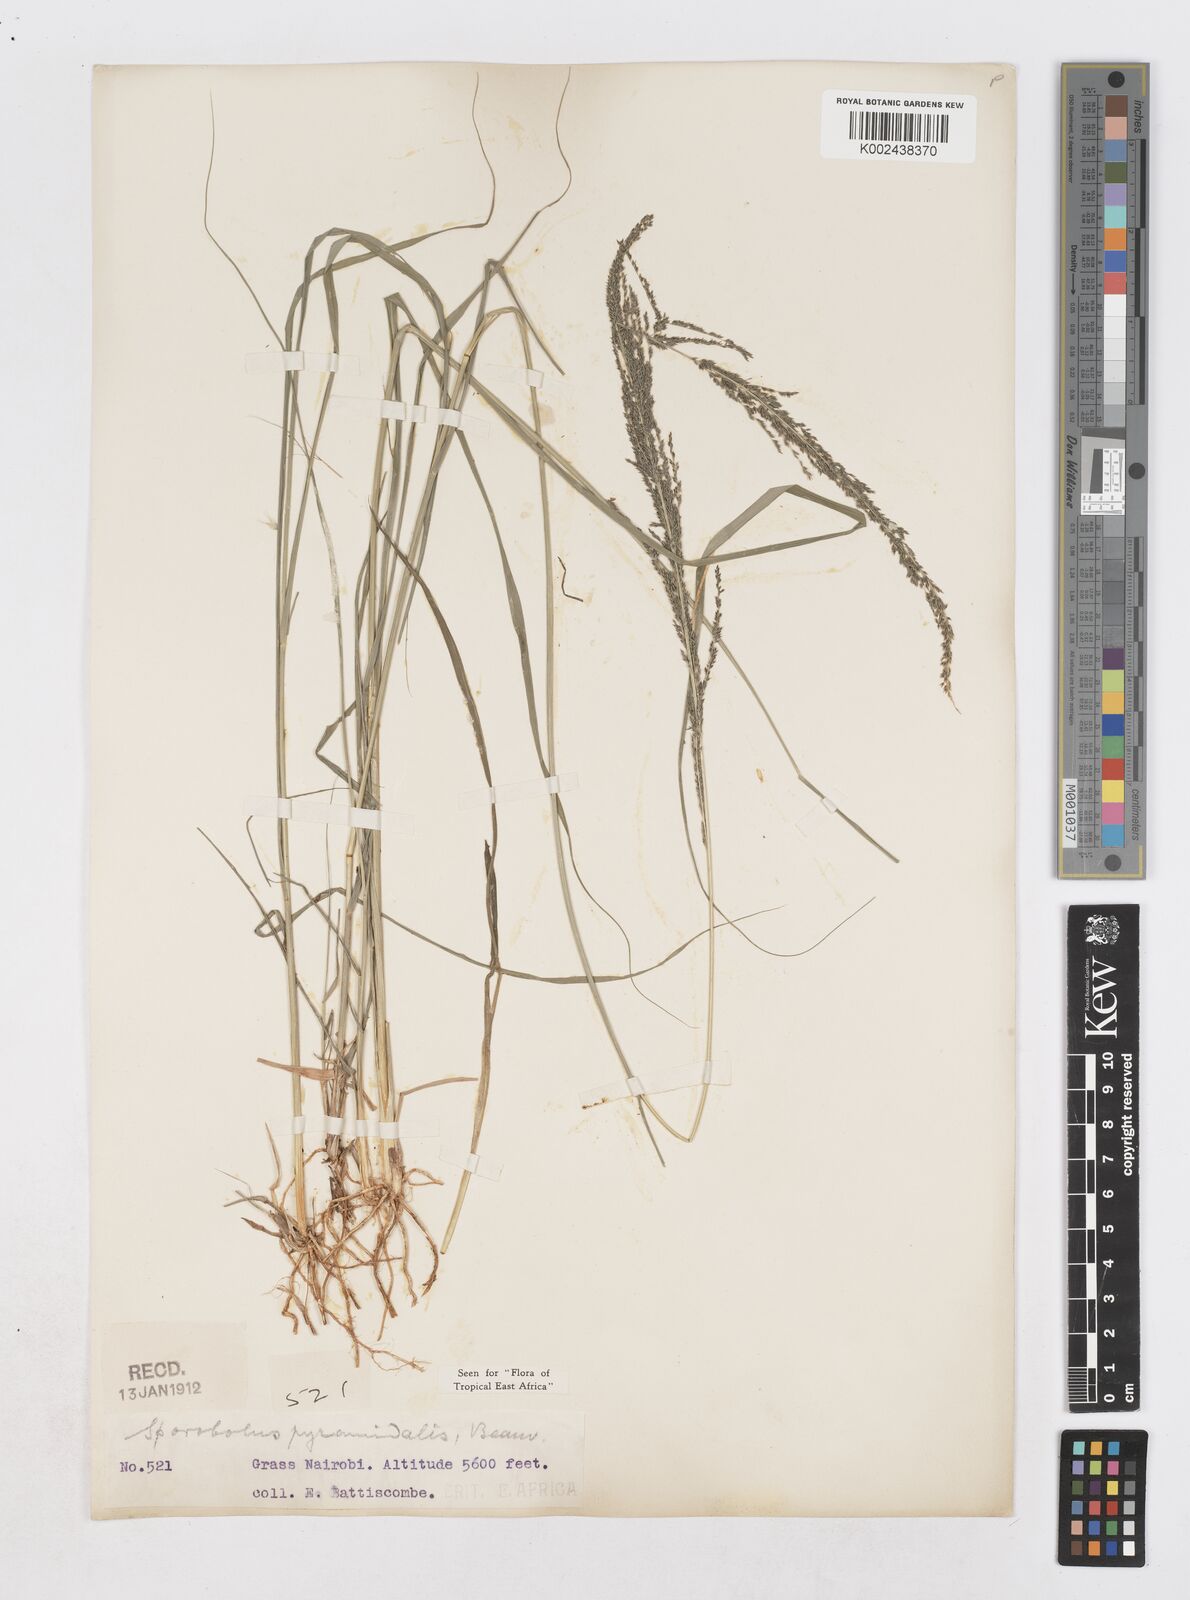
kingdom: Plantae
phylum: Tracheophyta
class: Liliopsida
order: Poales
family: Poaceae
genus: Sporobolus
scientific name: Sporobolus pyramidalis
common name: West indian dropseed
